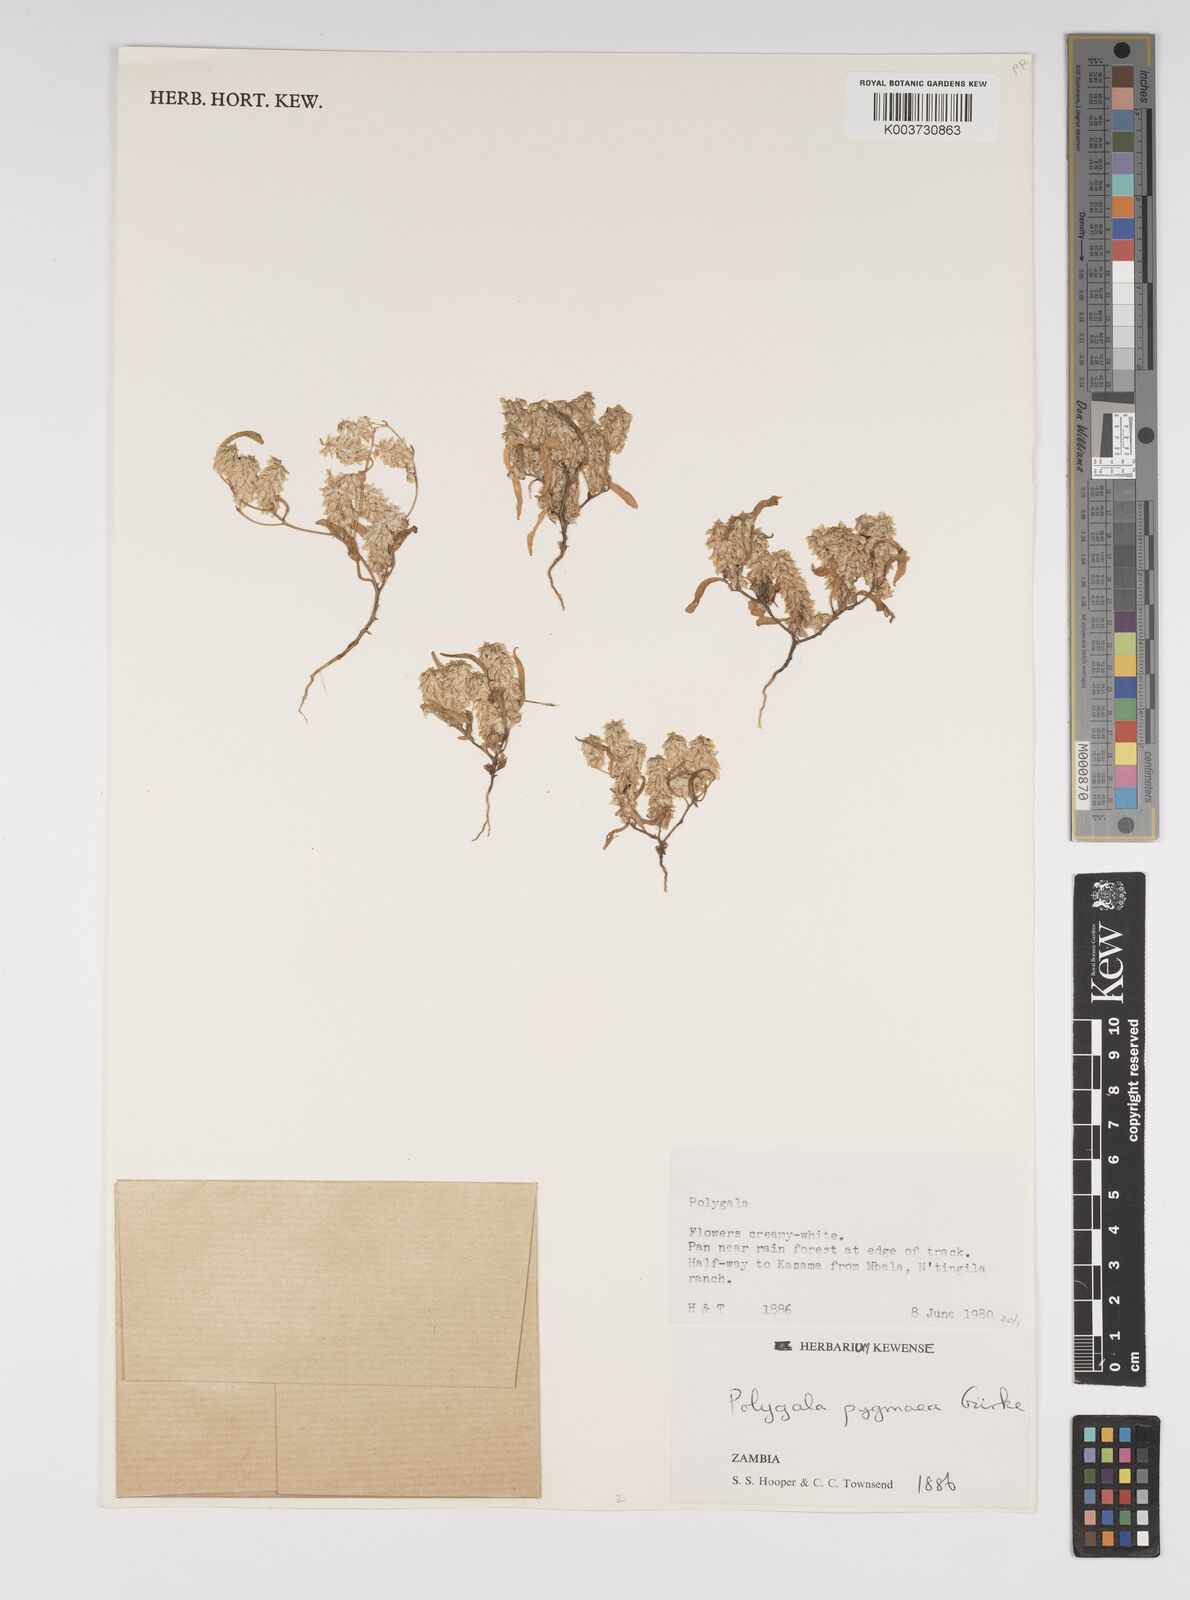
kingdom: Plantae
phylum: Tracheophyta
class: Magnoliopsida
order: Fabales
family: Polygalaceae
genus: Polygala
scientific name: Polygala welwitschii
